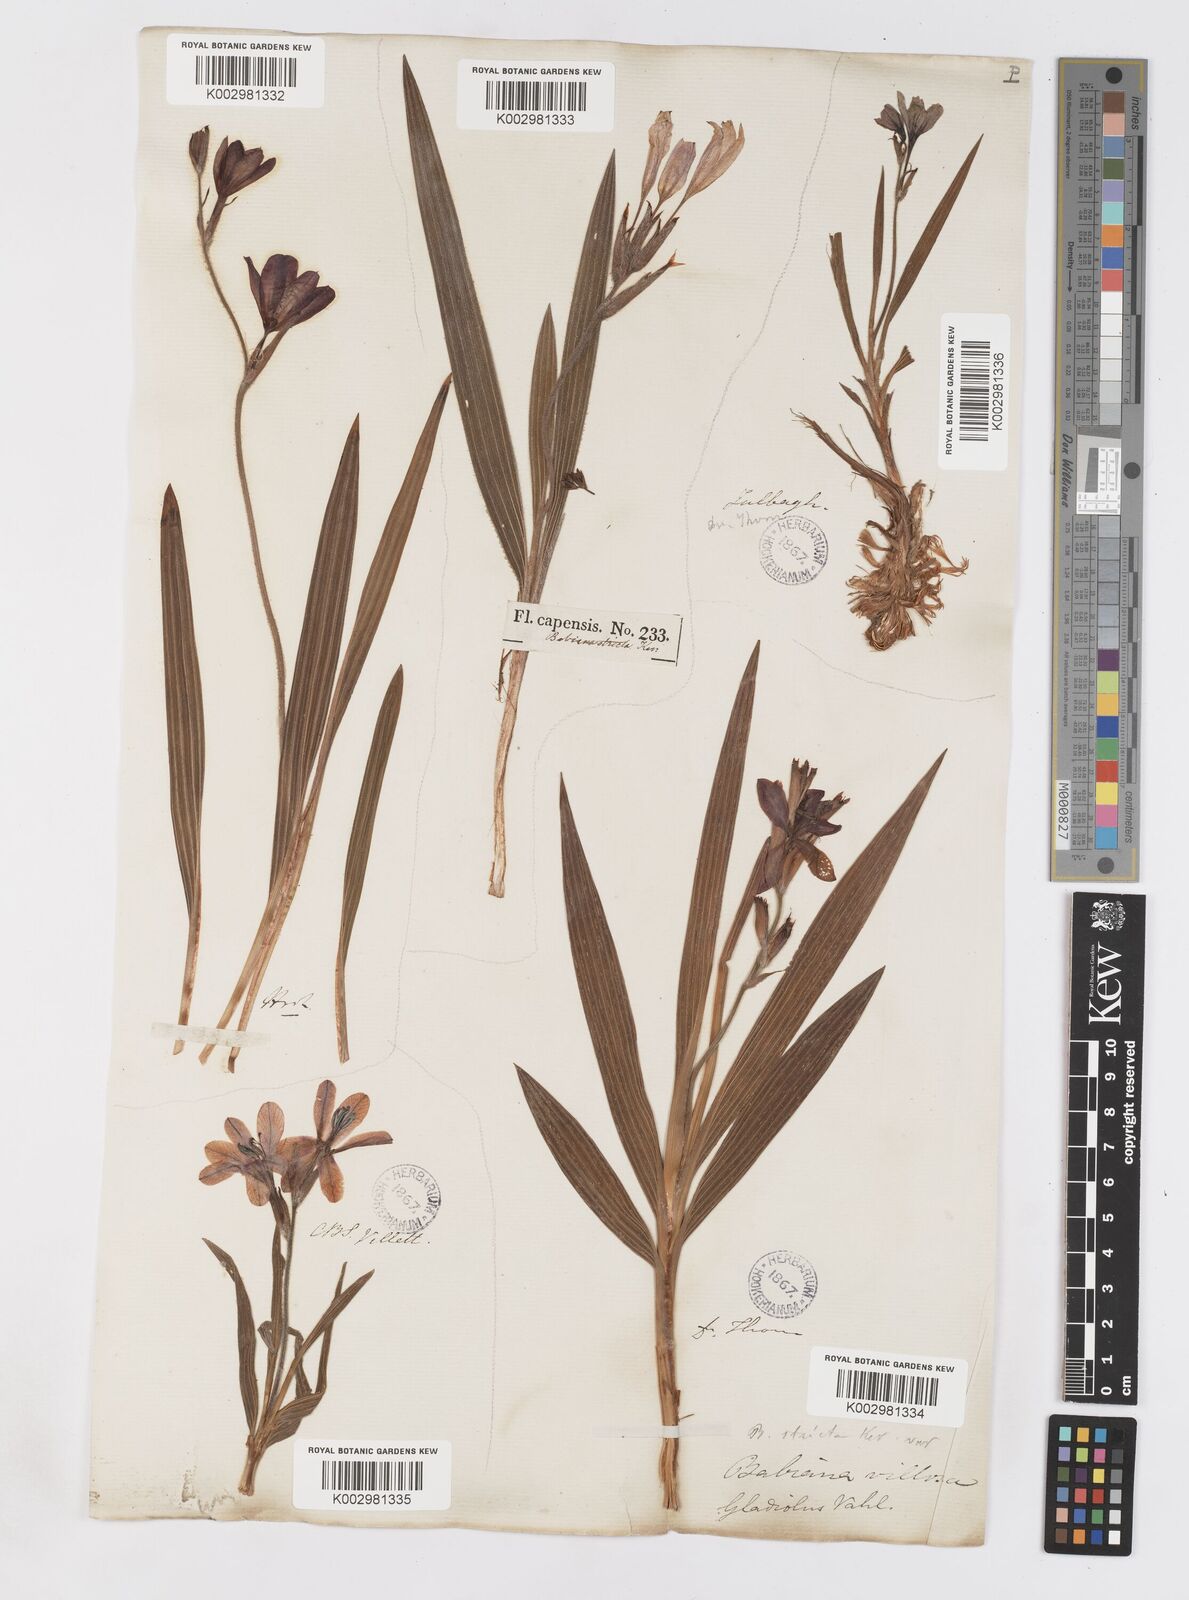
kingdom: Plantae
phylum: Tracheophyta
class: Liliopsida
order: Asparagales
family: Iridaceae
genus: Babiana
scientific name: Babiana villosa
